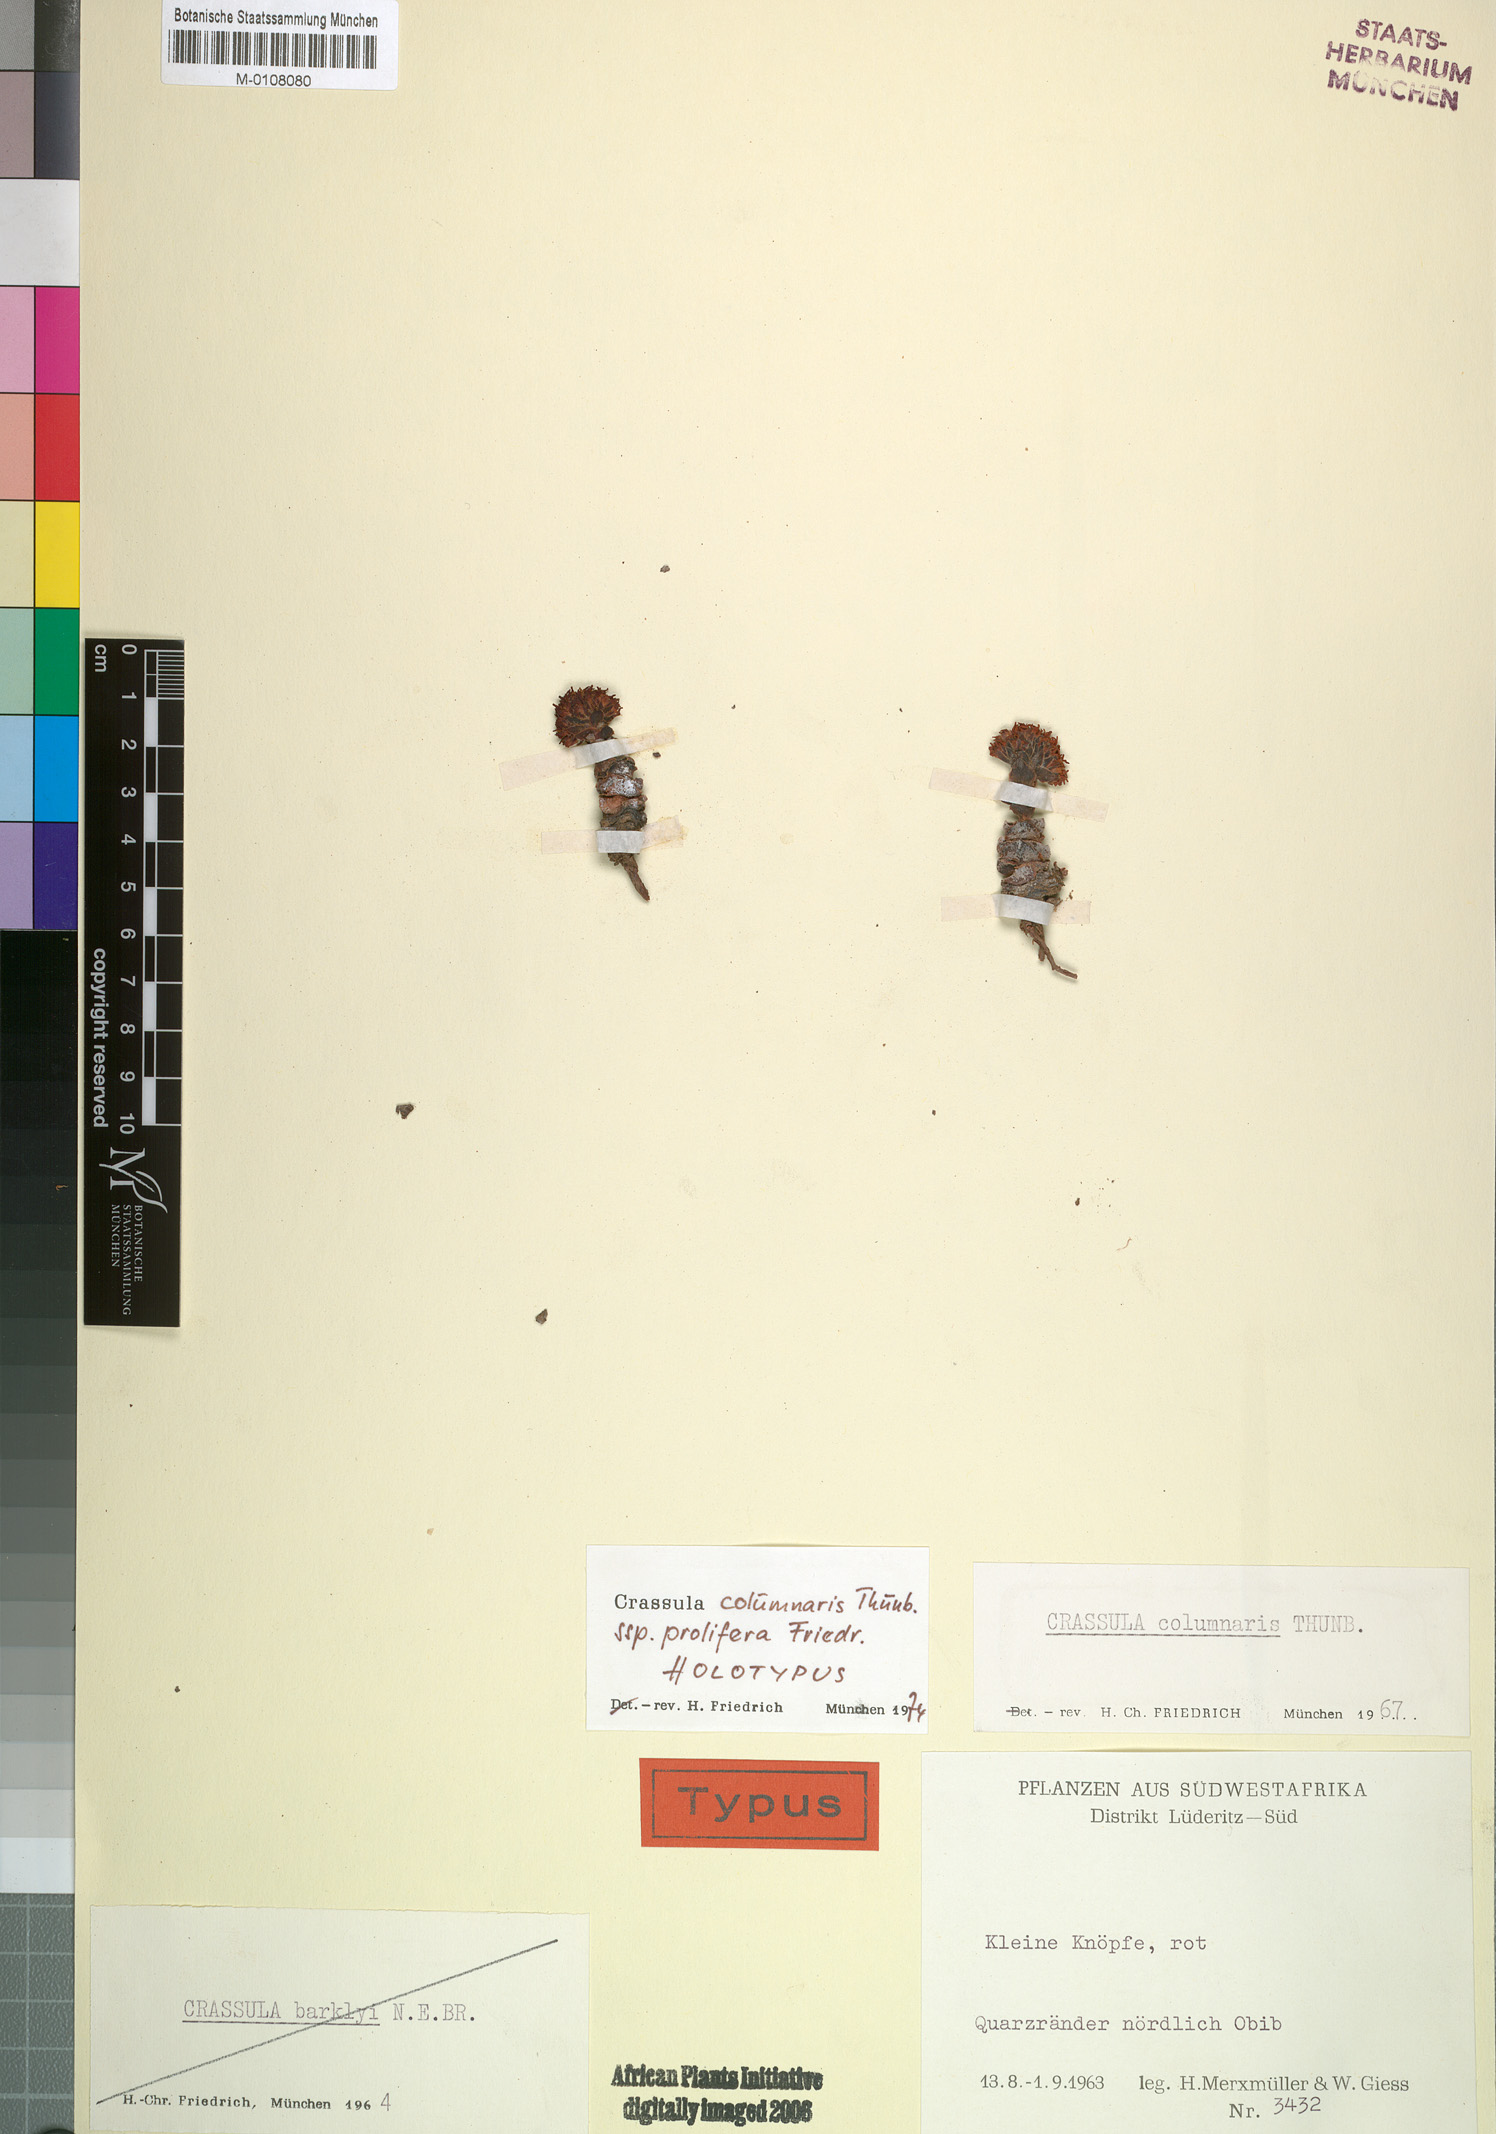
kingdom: Plantae
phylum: Tracheophyta
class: Magnoliopsida
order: Saxifragales
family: Crassulaceae
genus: Crassula
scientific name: Crassula columnaris
